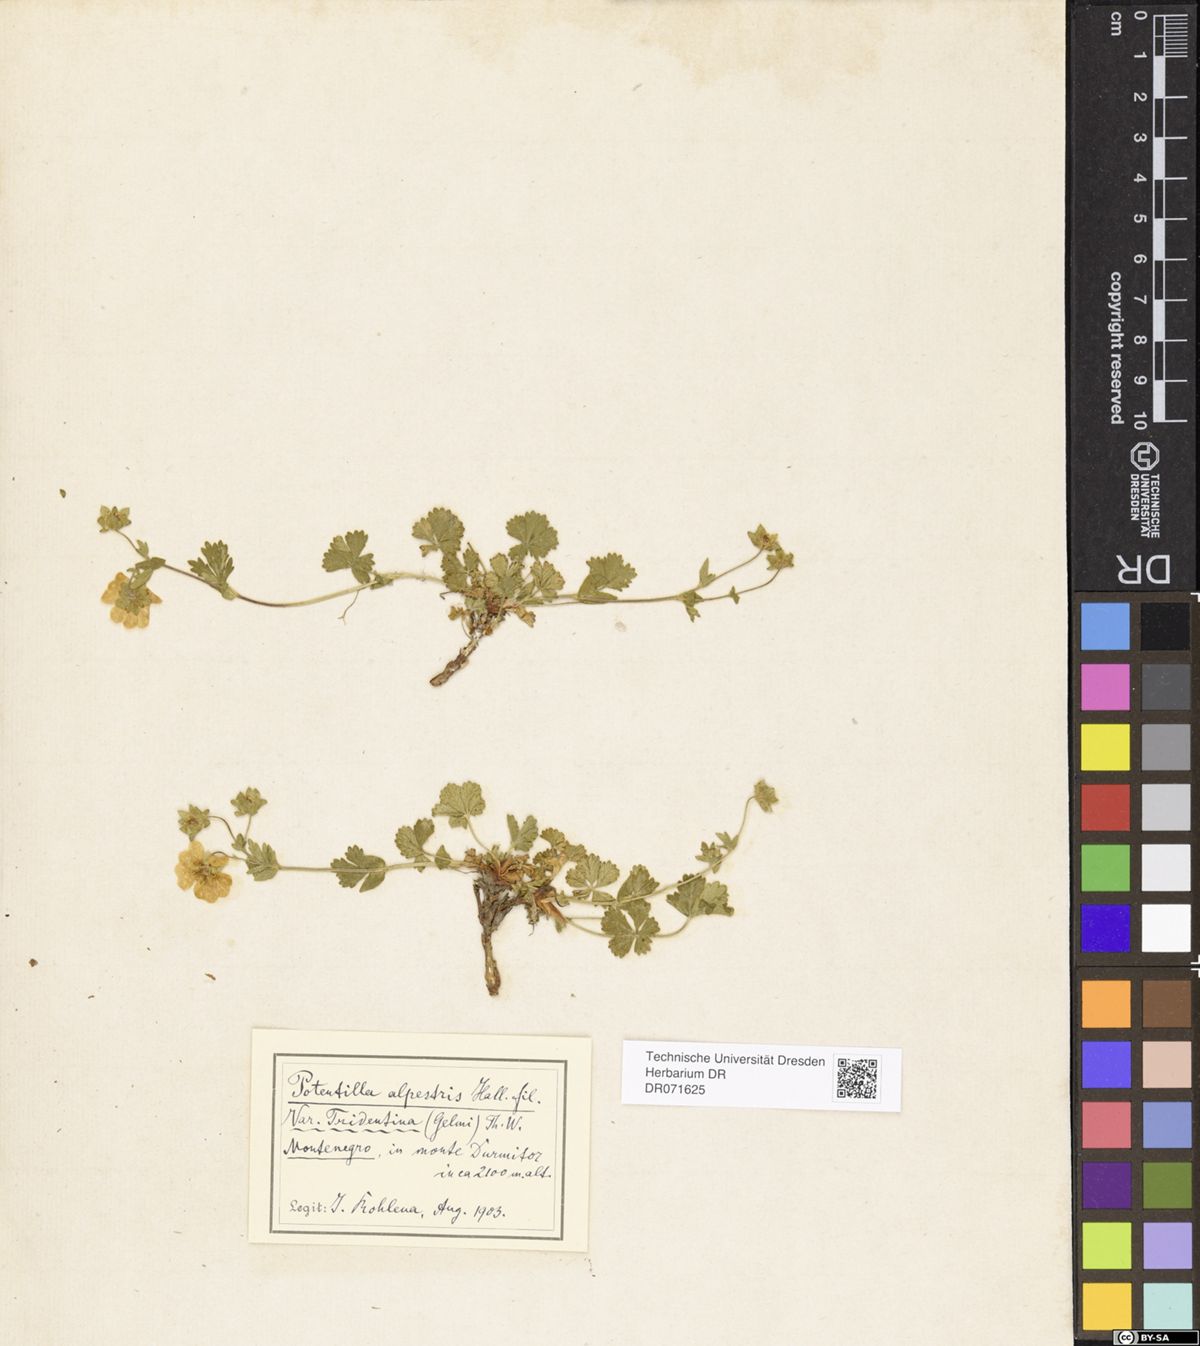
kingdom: Plantae
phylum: Tracheophyta
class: Magnoliopsida
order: Rosales
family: Rosaceae
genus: Potentilla
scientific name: Potentilla crantzii
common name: Alpine cinquefoil
